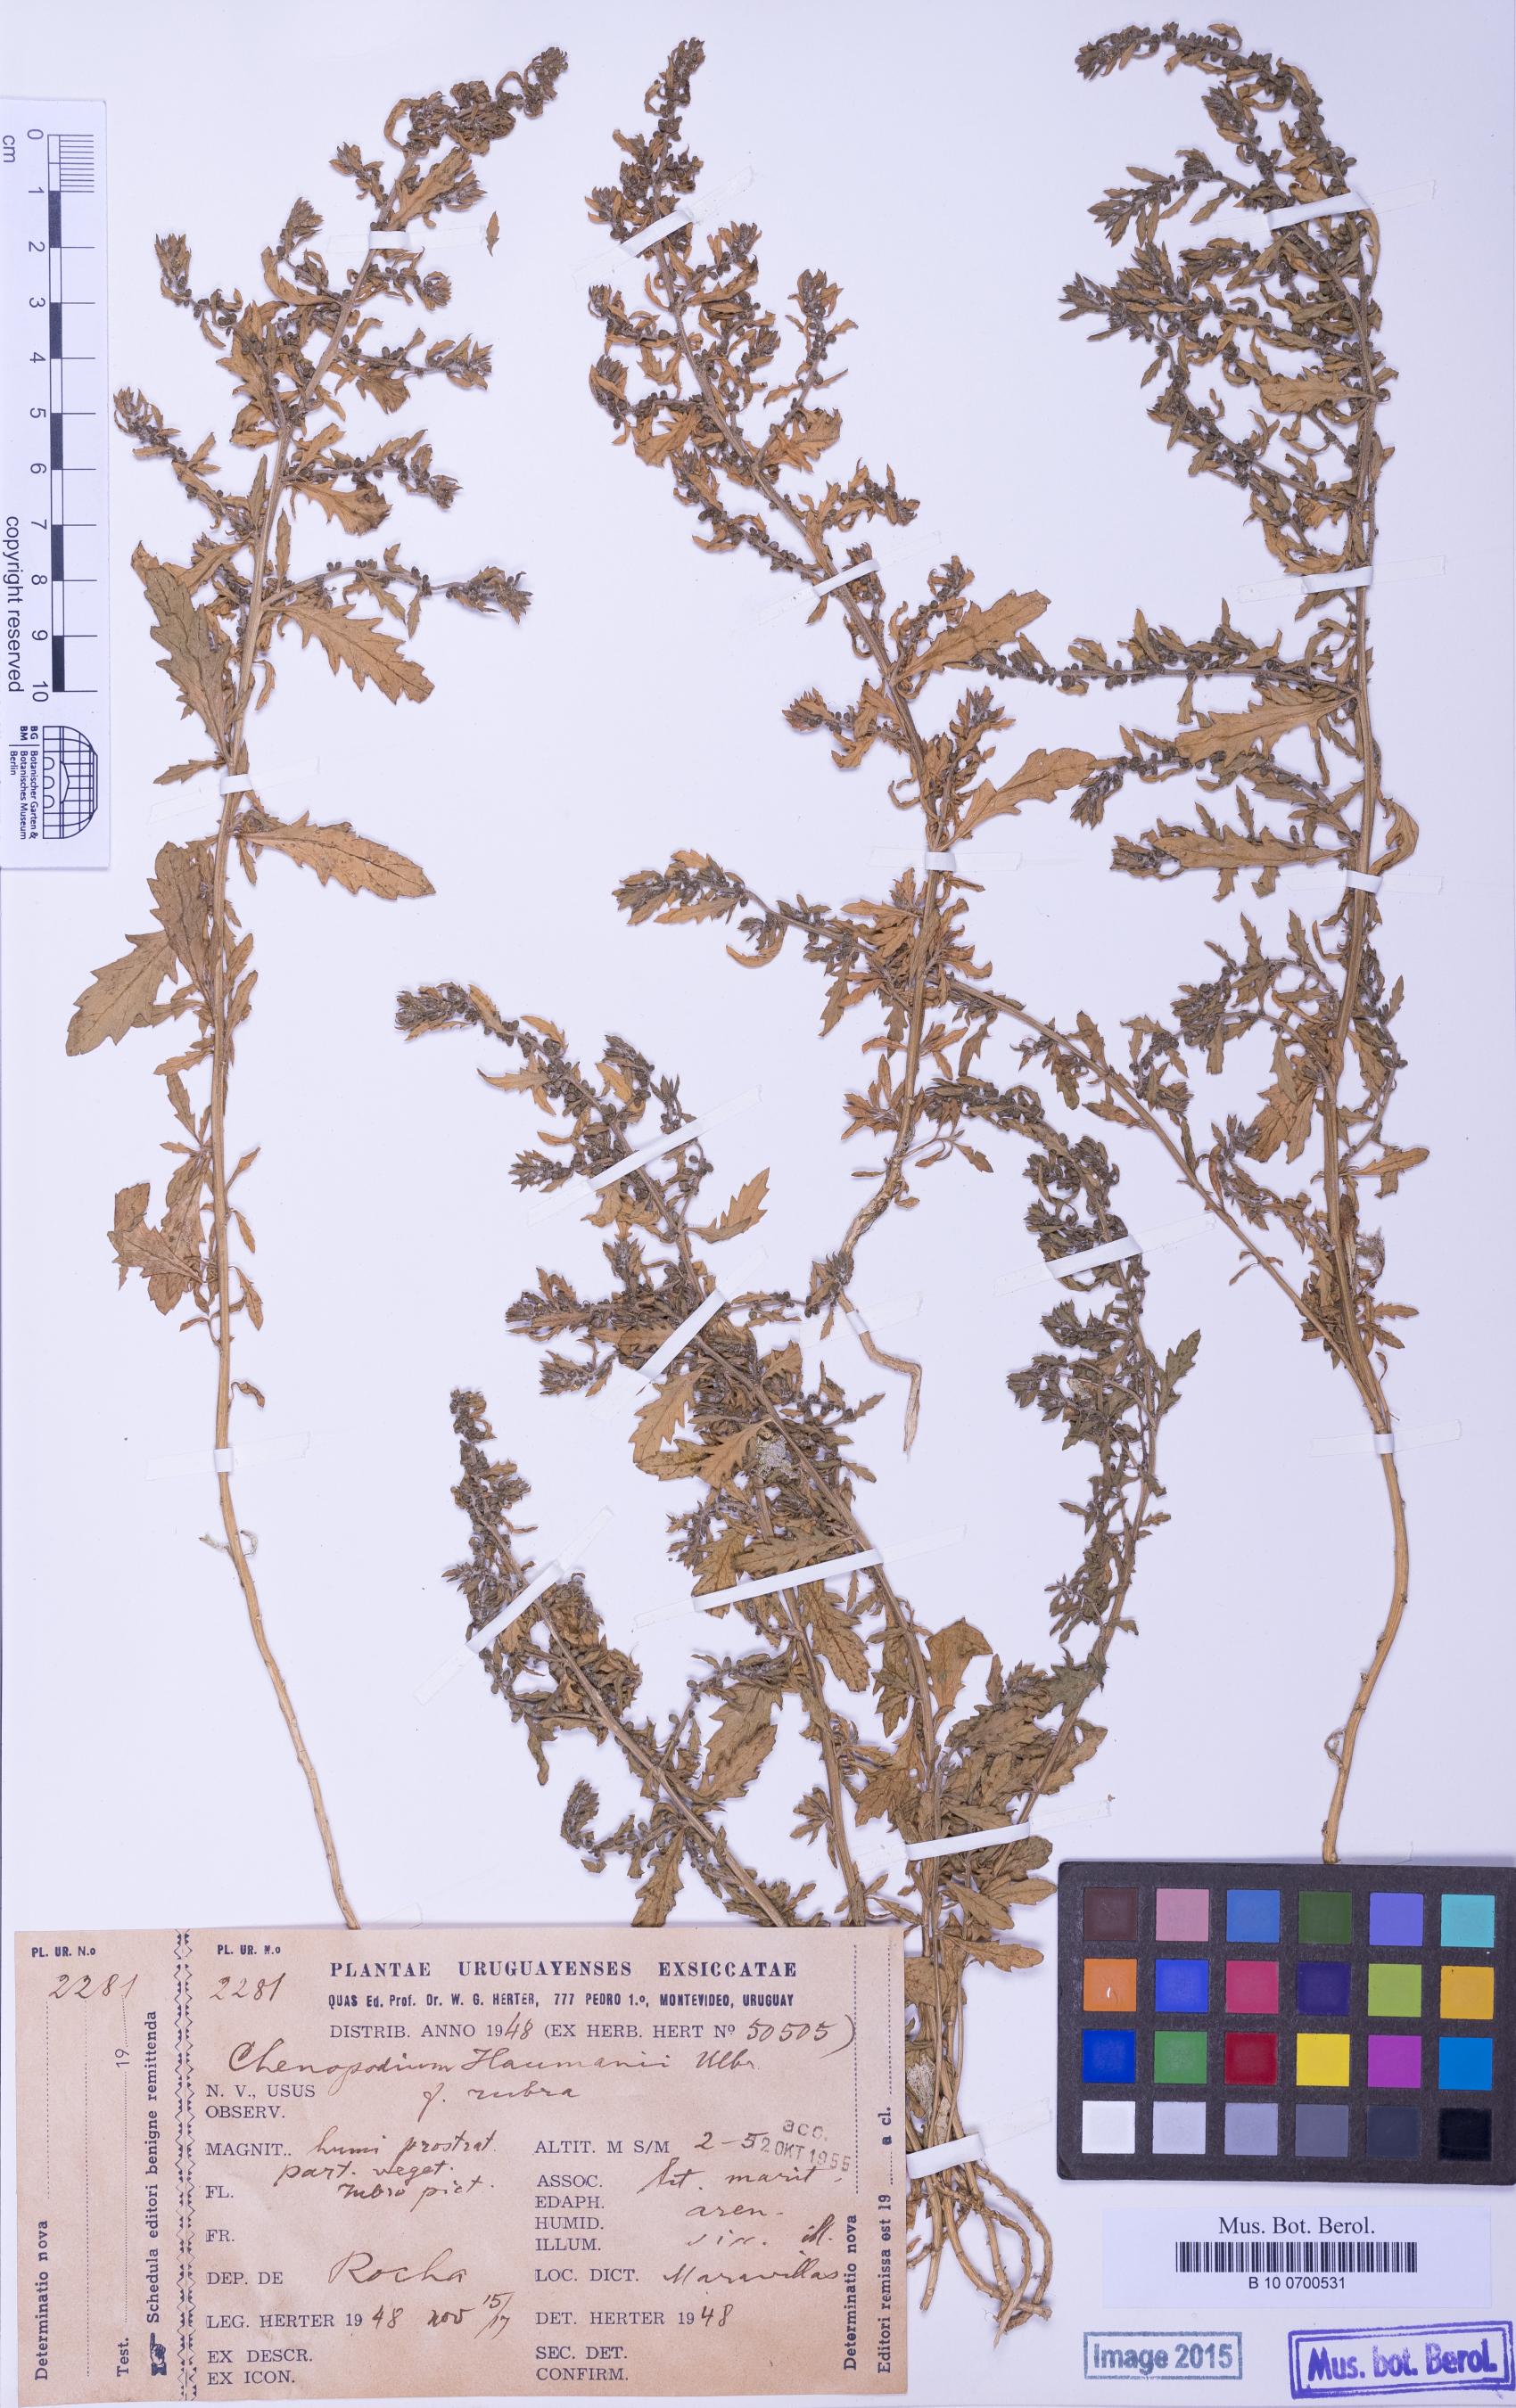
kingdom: Plantae
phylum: Tracheophyta
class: Magnoliopsida
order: Caryophyllales
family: Amaranthaceae
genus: Dysphania
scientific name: Dysphania bonariensis
